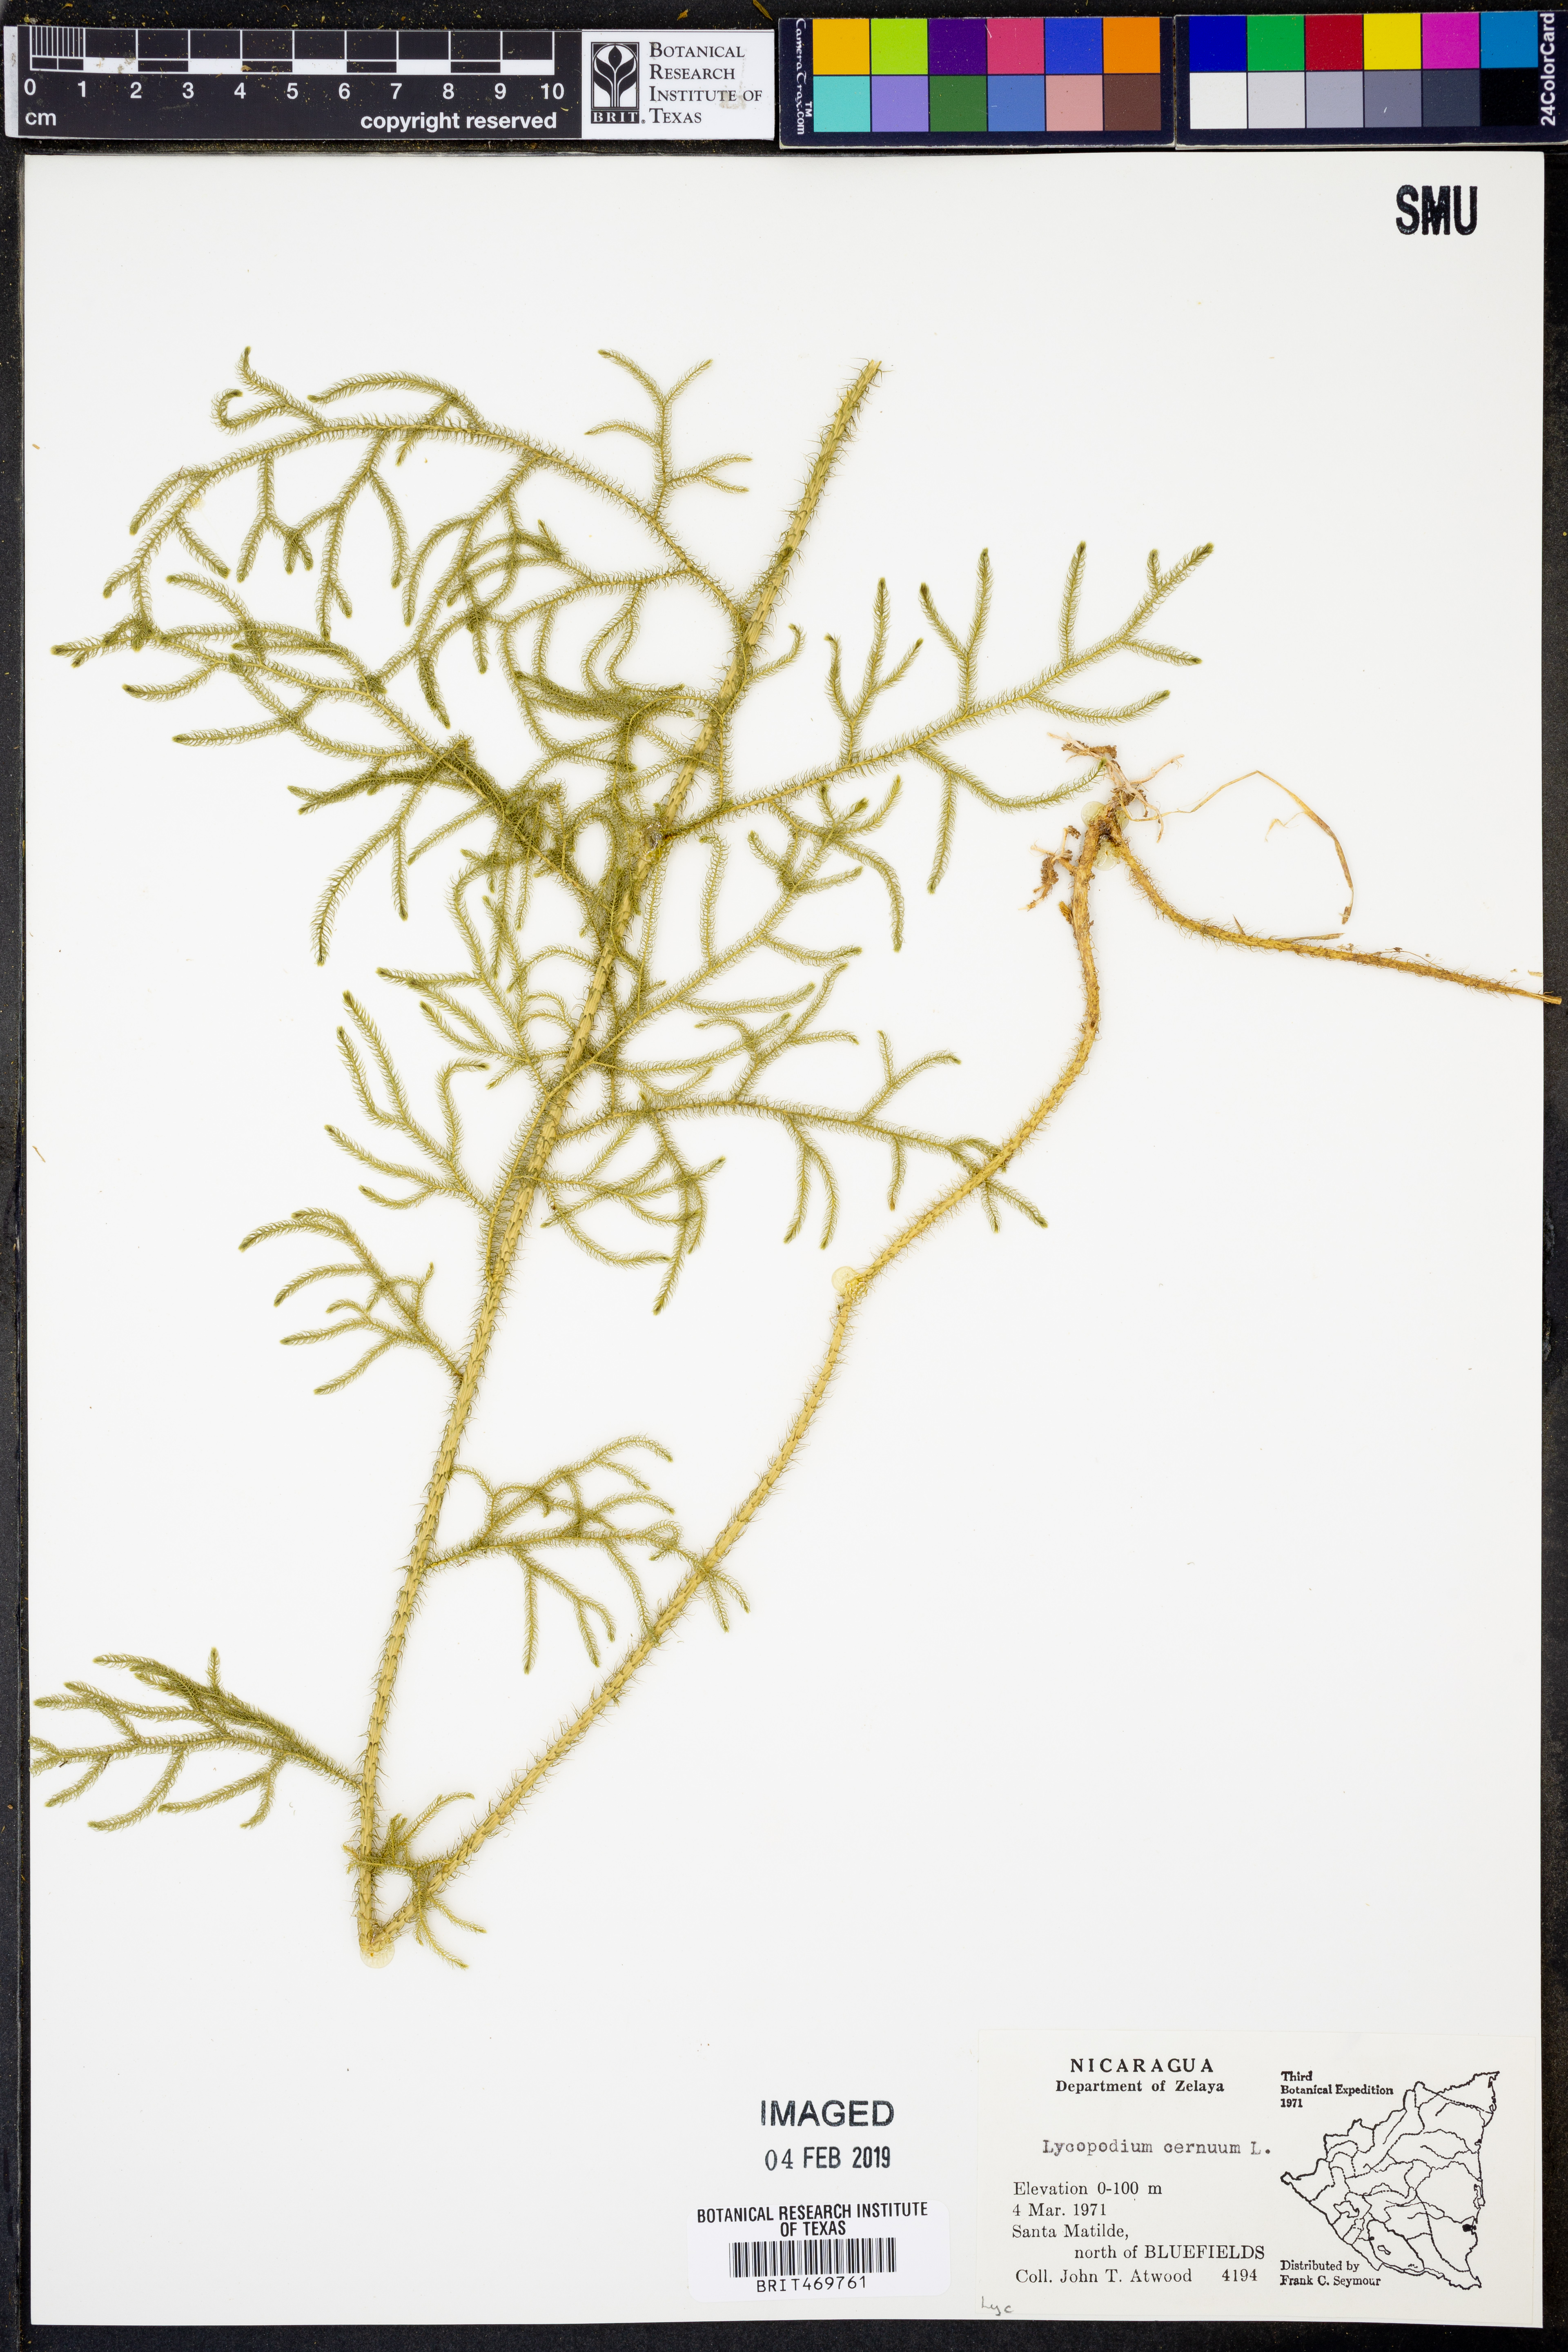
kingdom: Plantae
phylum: Tracheophyta
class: Lycopodiopsida
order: Lycopodiales
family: Lycopodiaceae
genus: Palhinhaea
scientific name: Palhinhaea cernua
